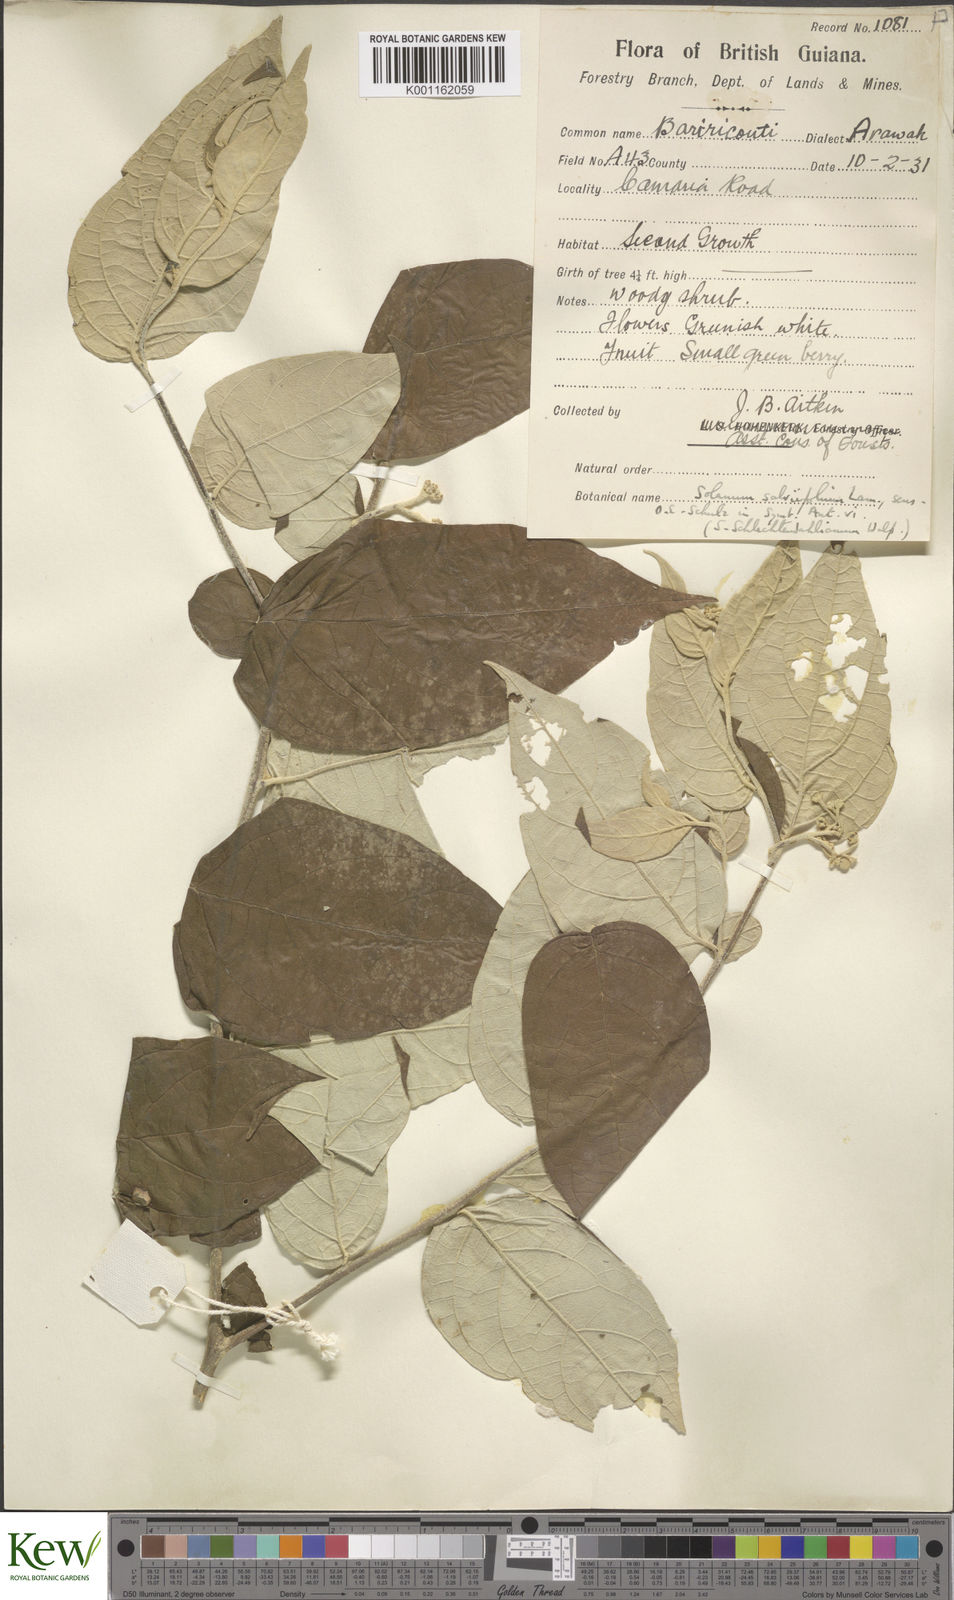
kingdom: Plantae
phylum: Tracheophyta
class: Magnoliopsida
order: Solanales
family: Solanaceae
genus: Solanum
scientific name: Solanum schlechtendalianum
